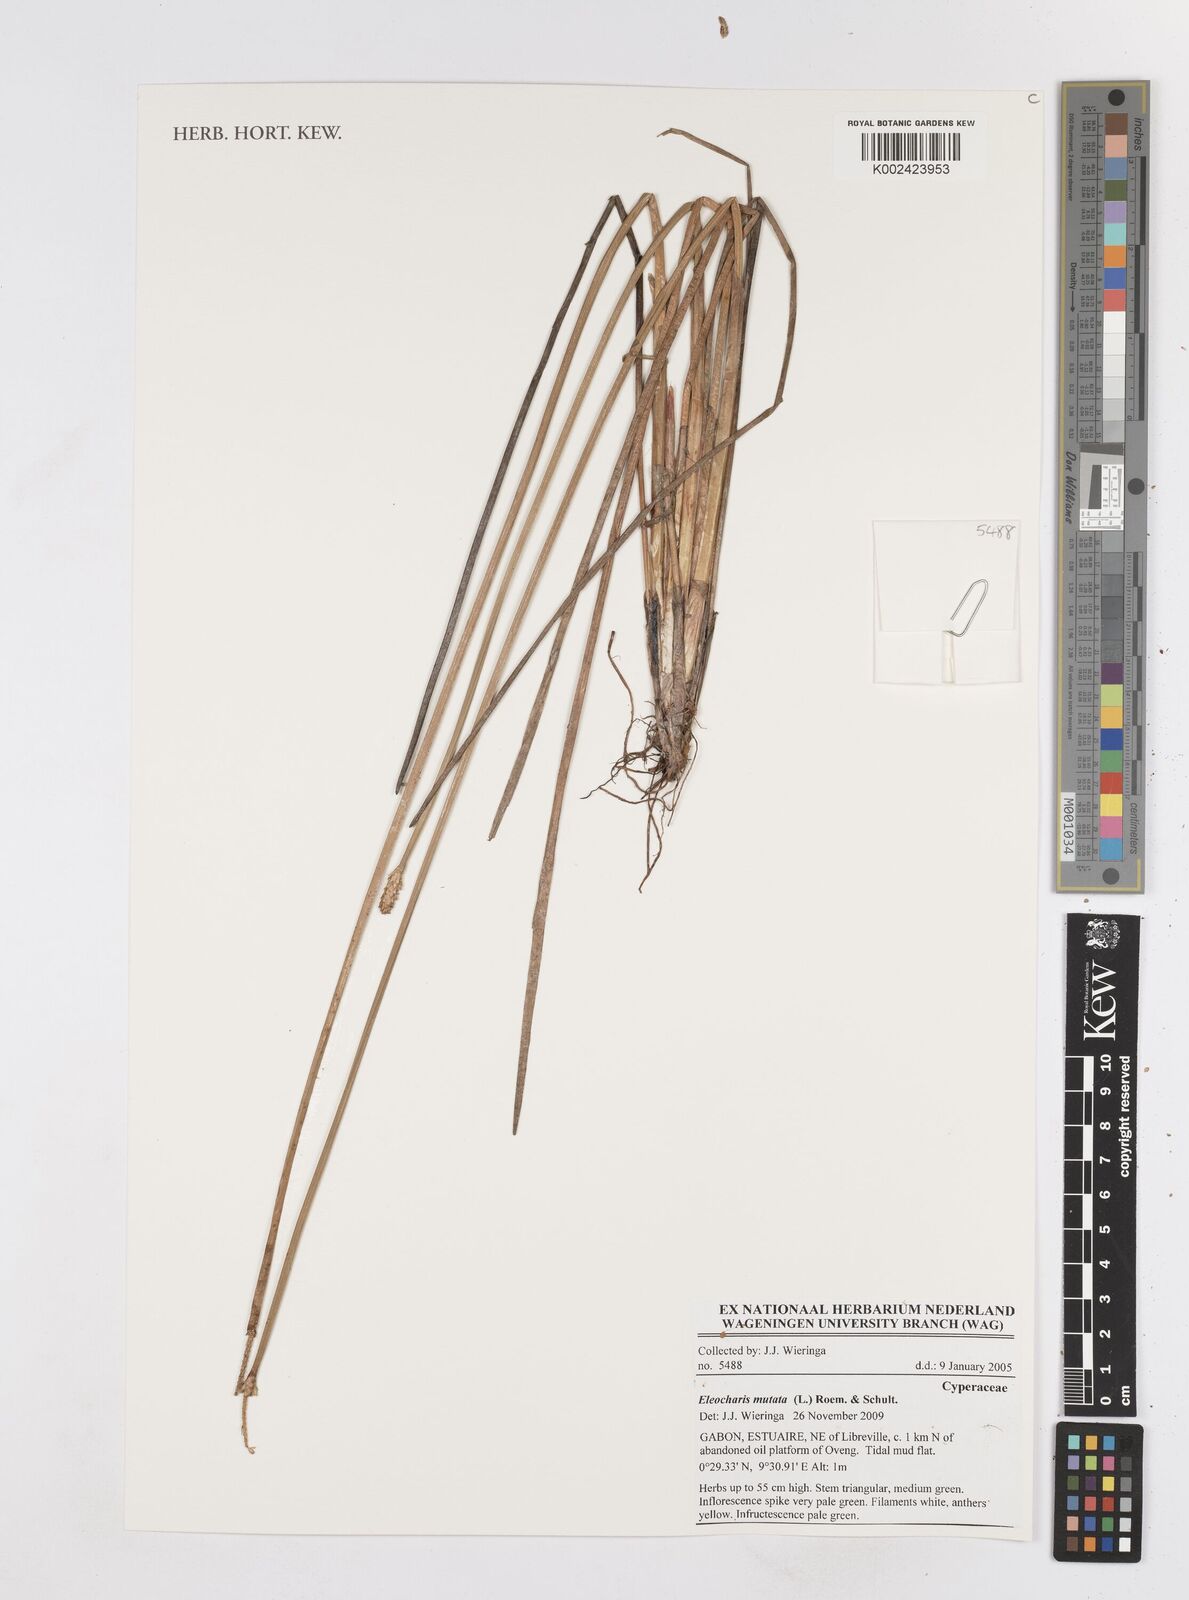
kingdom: Plantae
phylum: Tracheophyta
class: Liliopsida
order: Poales
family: Cyperaceae
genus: Eleocharis
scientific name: Eleocharis mutata
